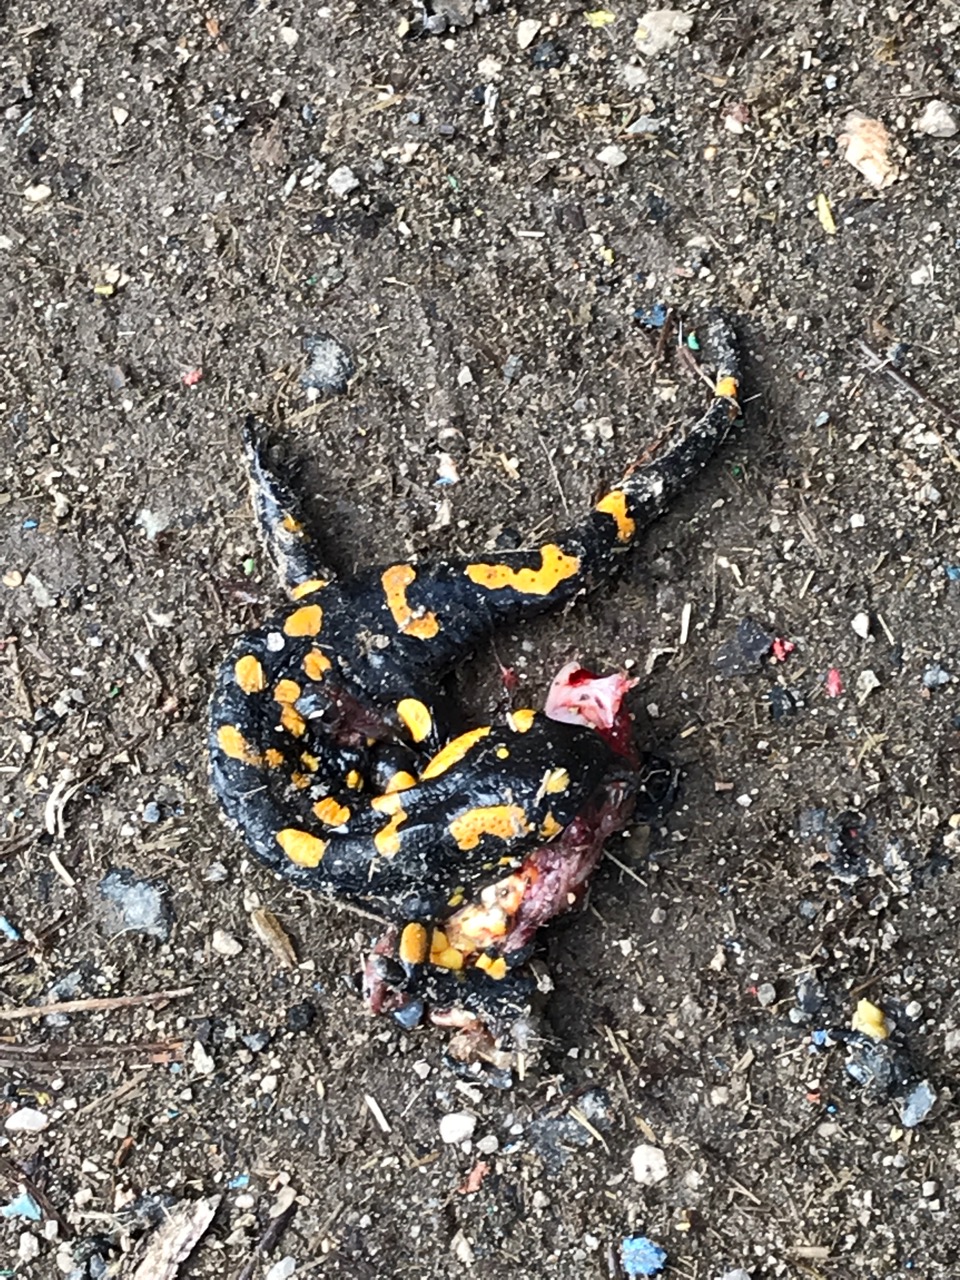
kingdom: Animalia
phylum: Chordata
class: Amphibia
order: Caudata
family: Salamandridae
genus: Salamandra
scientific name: Salamandra salamandra
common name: Fire salamander
